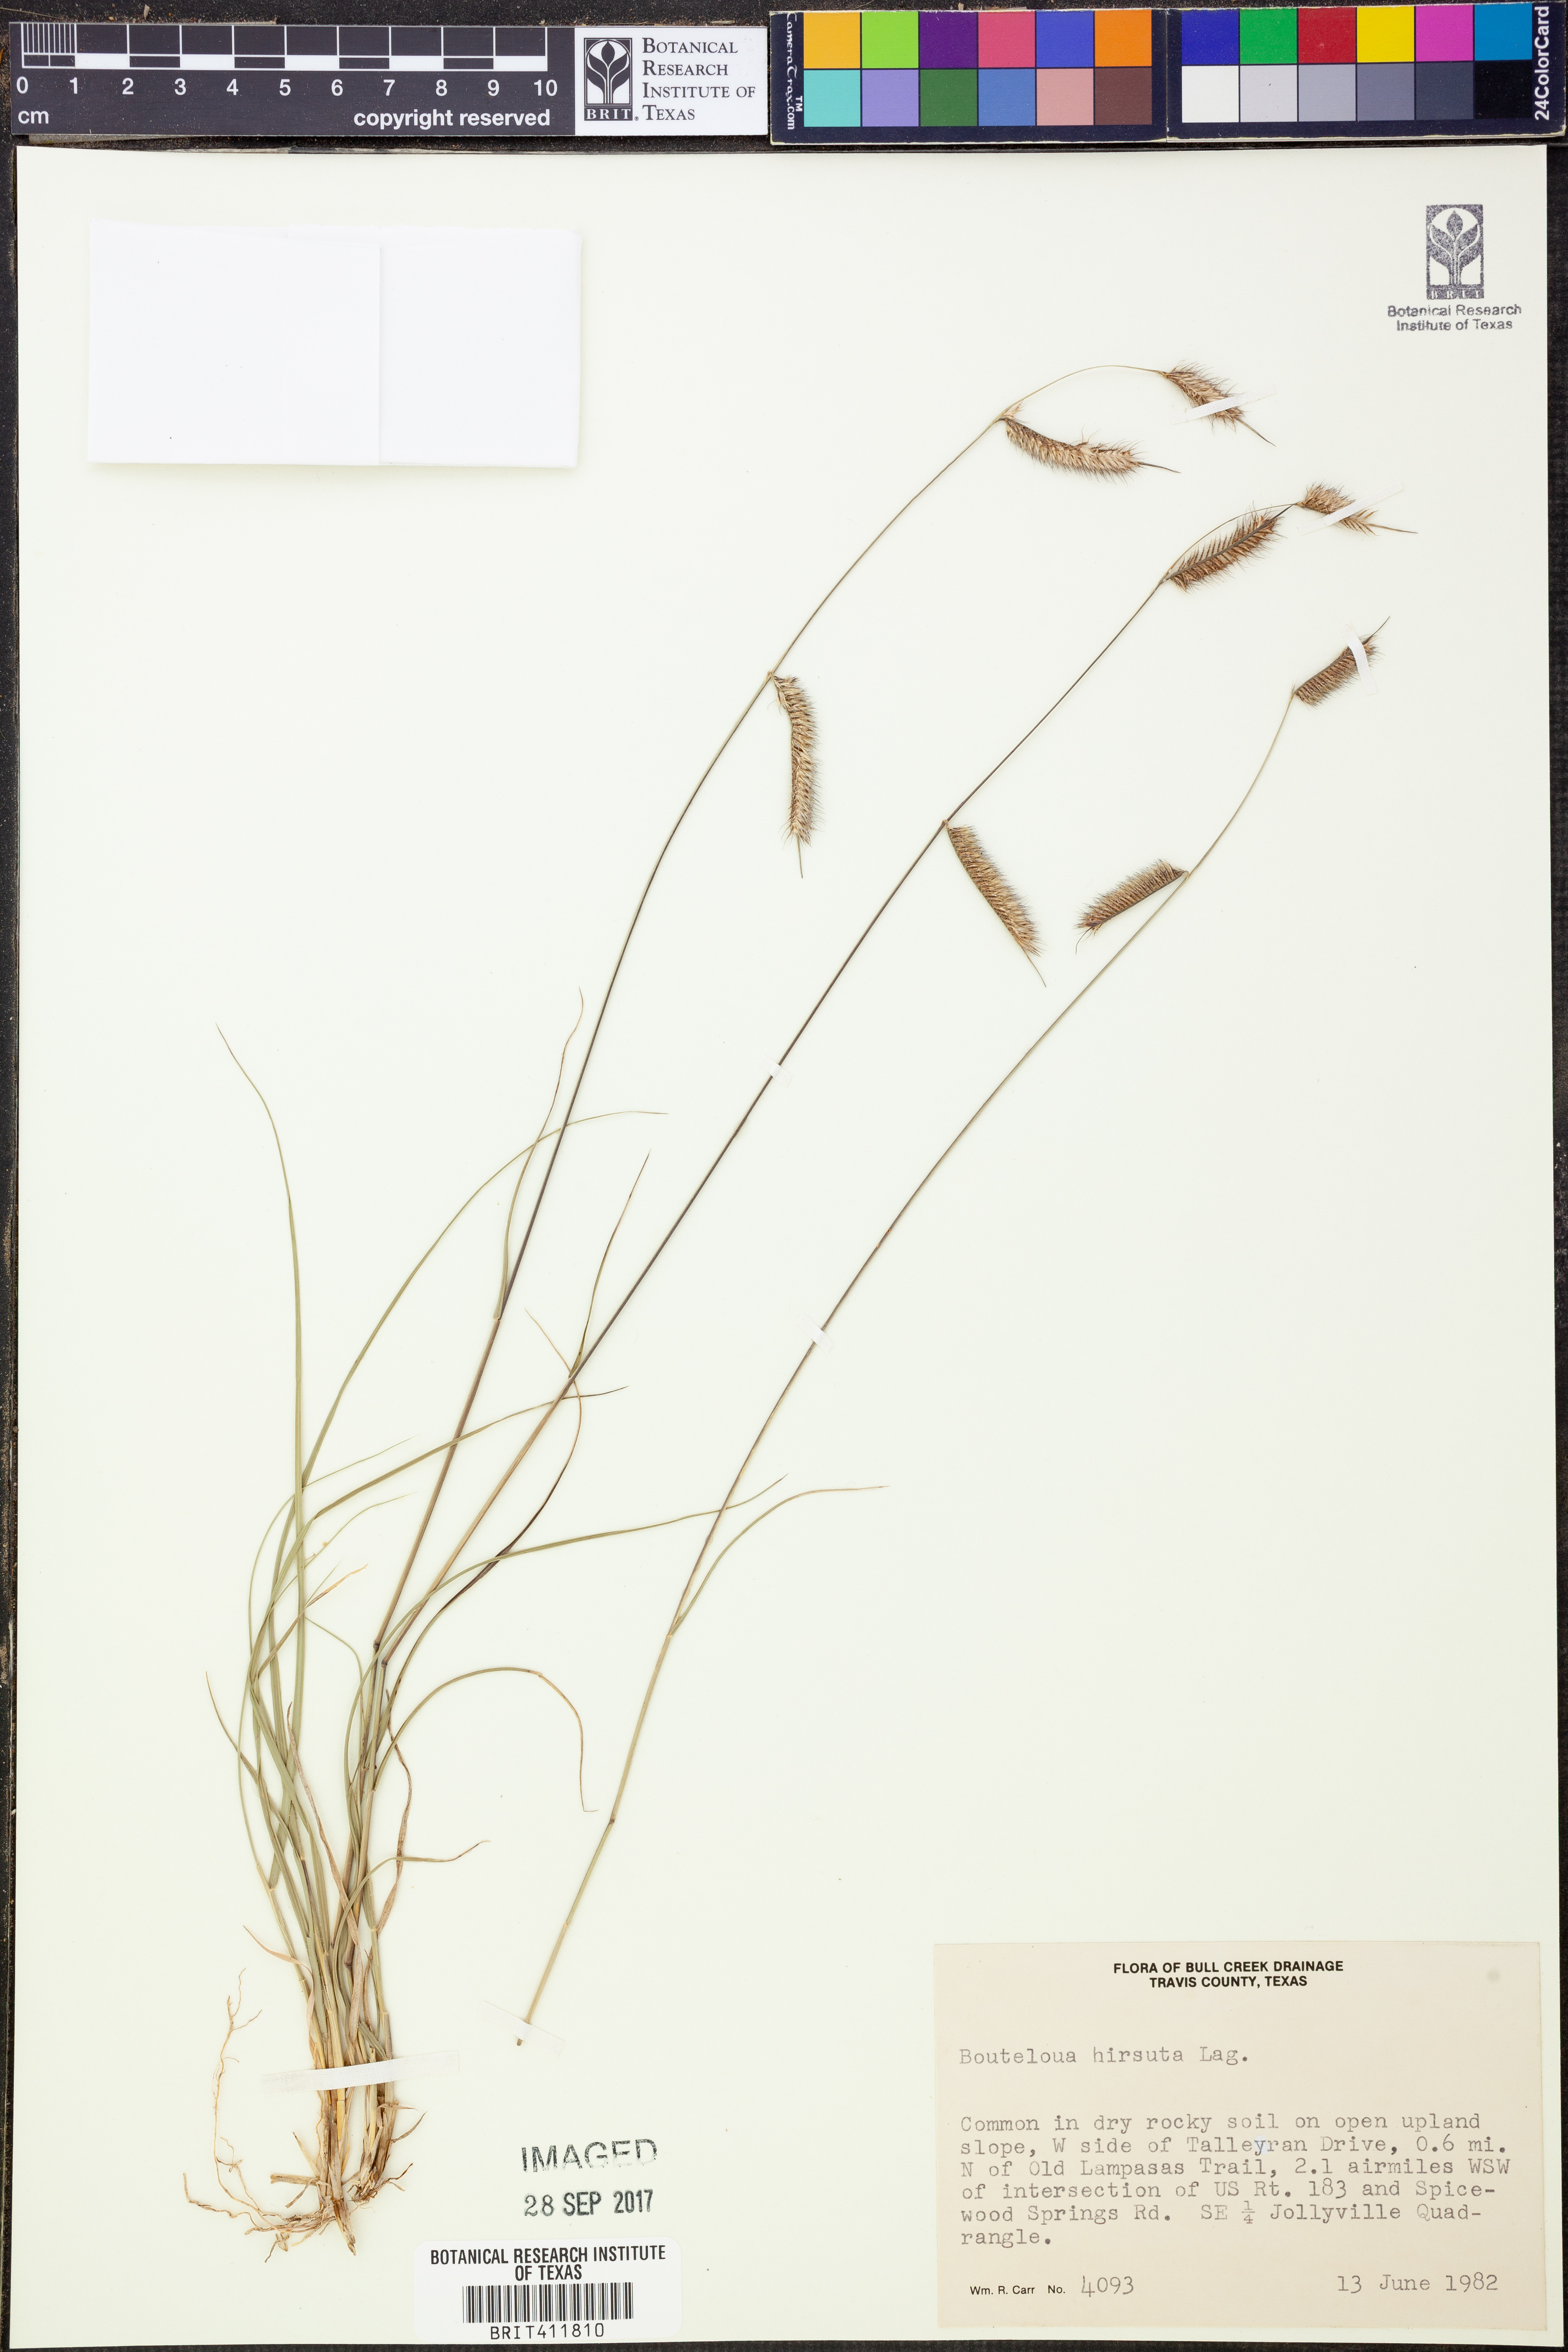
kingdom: Plantae
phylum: Tracheophyta
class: Liliopsida
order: Poales
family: Poaceae
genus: Bouteloua
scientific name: Bouteloua hirsuta
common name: Hairy grama
